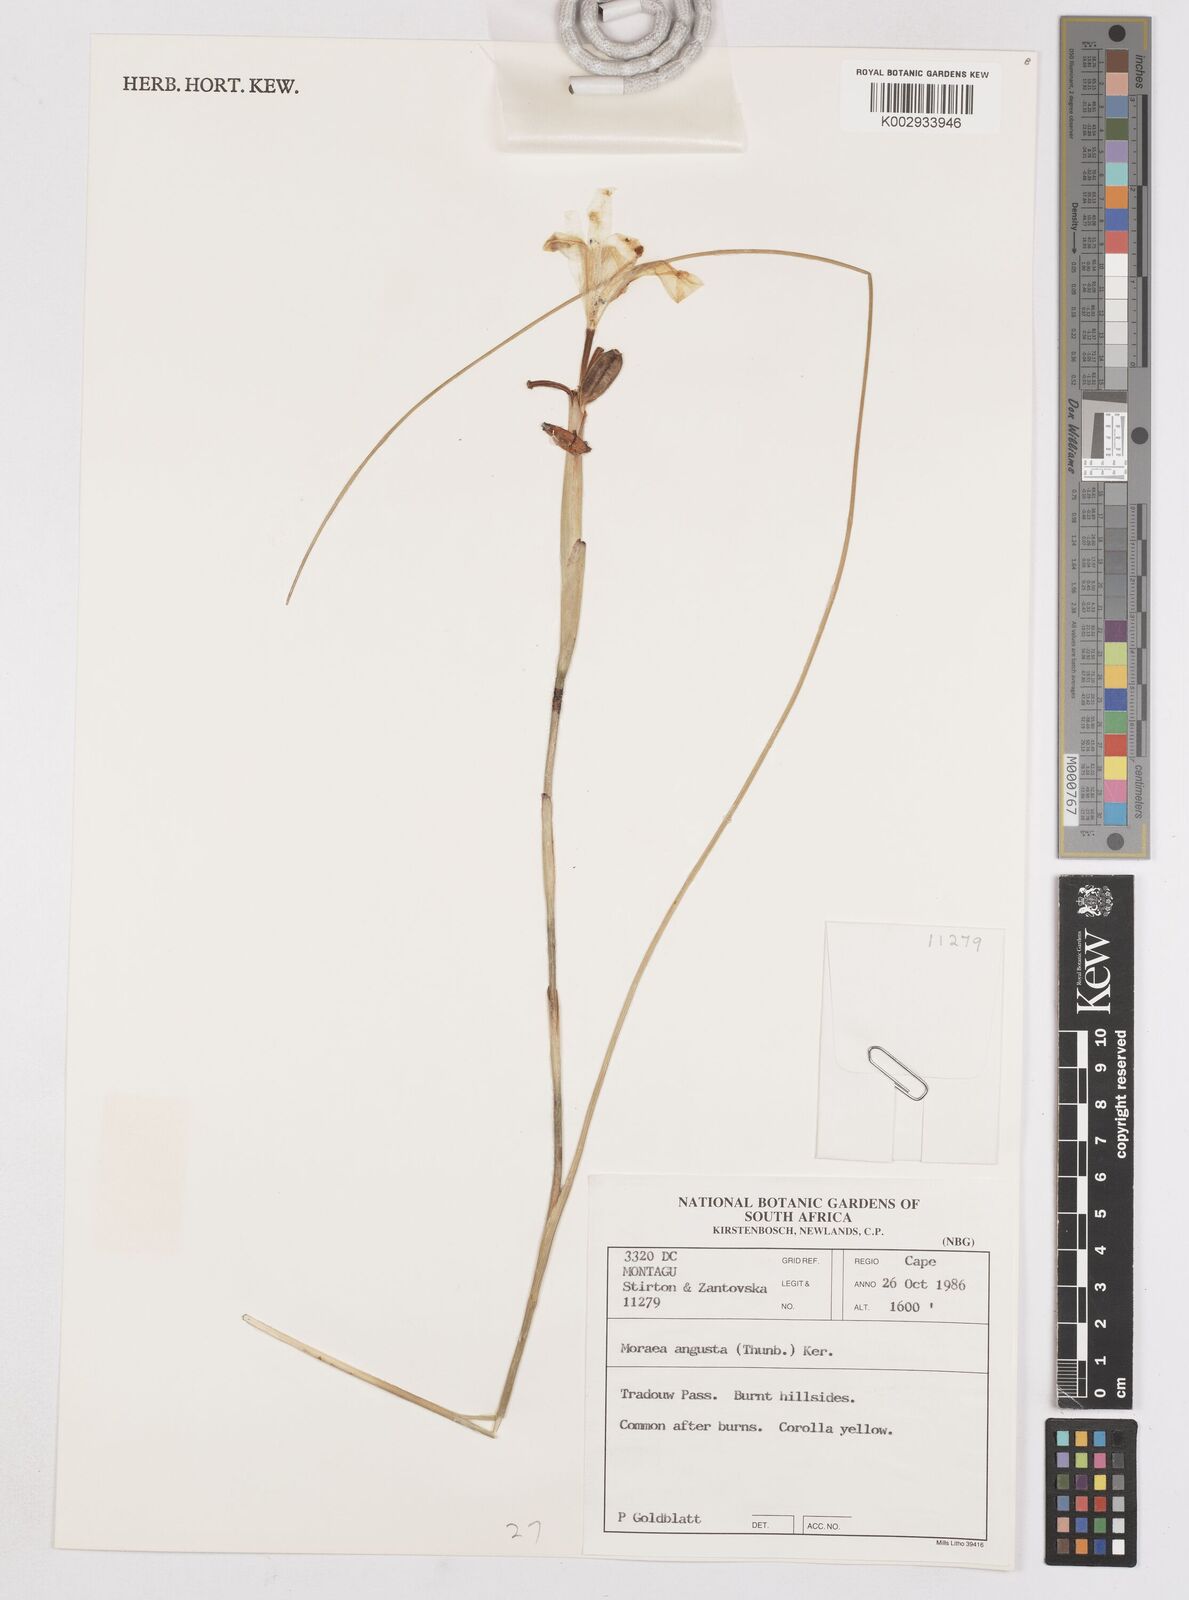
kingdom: Plantae
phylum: Tracheophyta
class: Liliopsida
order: Asparagales
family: Iridaceae
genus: Moraea
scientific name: Moraea angusta
